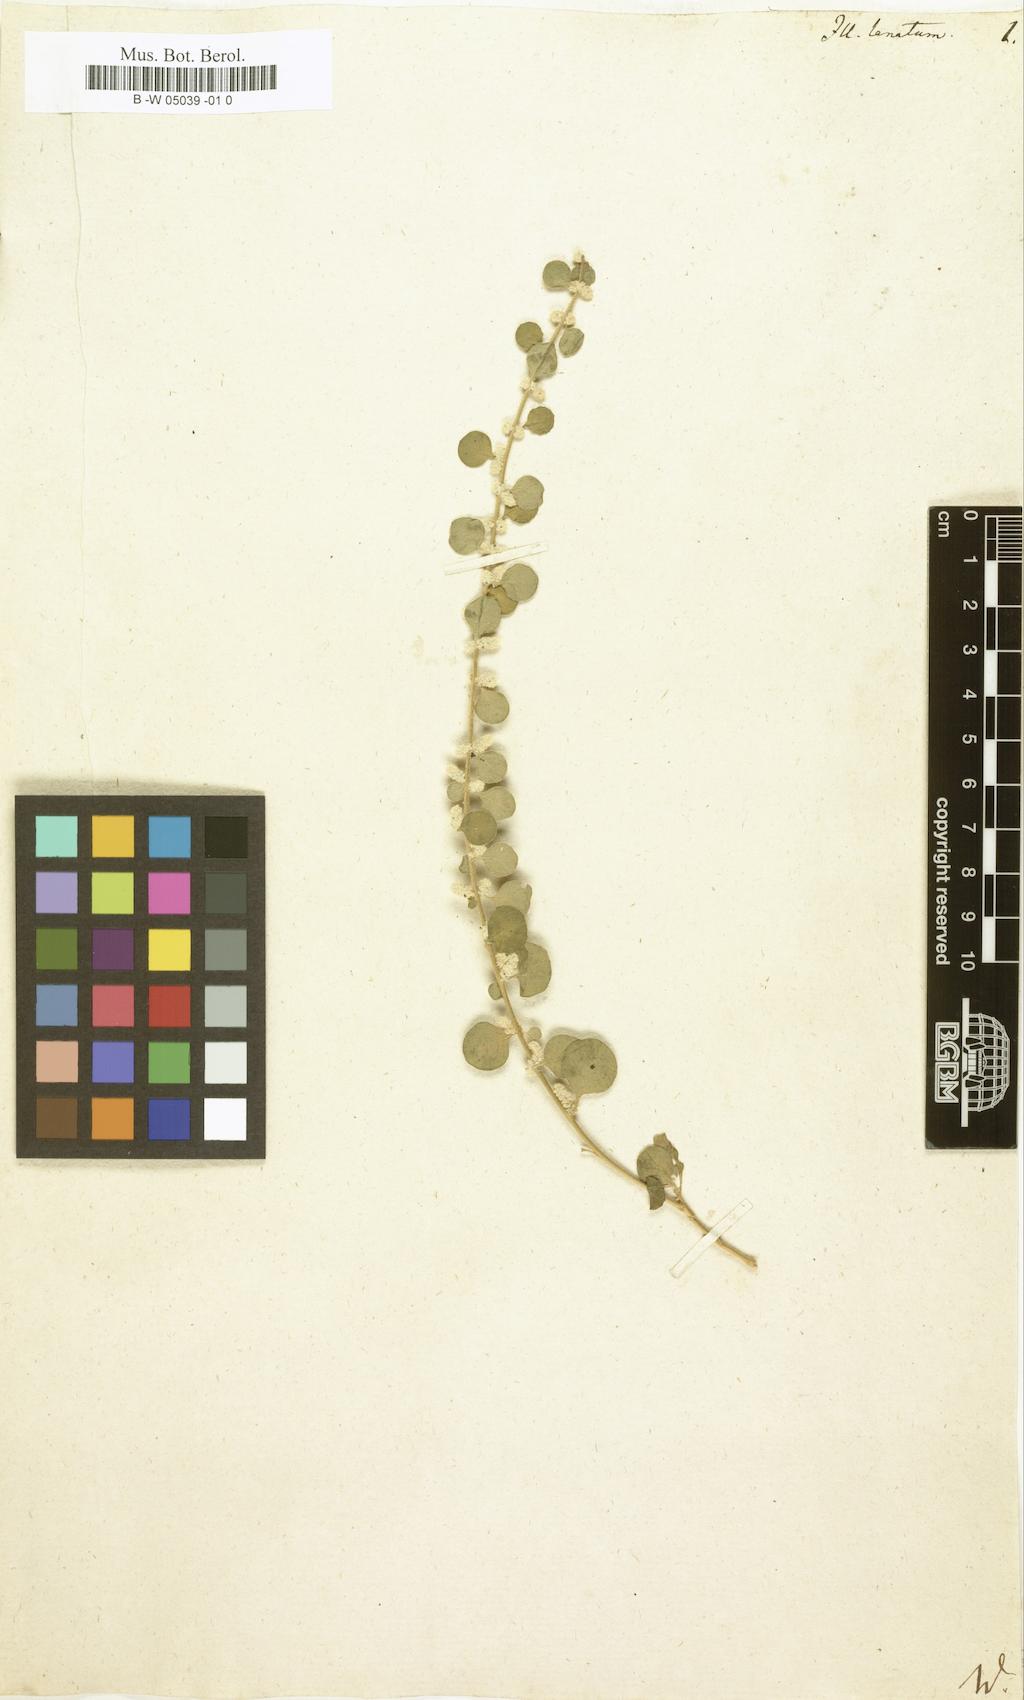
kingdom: Plantae
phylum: Tracheophyta
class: Magnoliopsida
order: Caryophyllales
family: Amaranthaceae
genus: Ouret
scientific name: Ouret lanata
